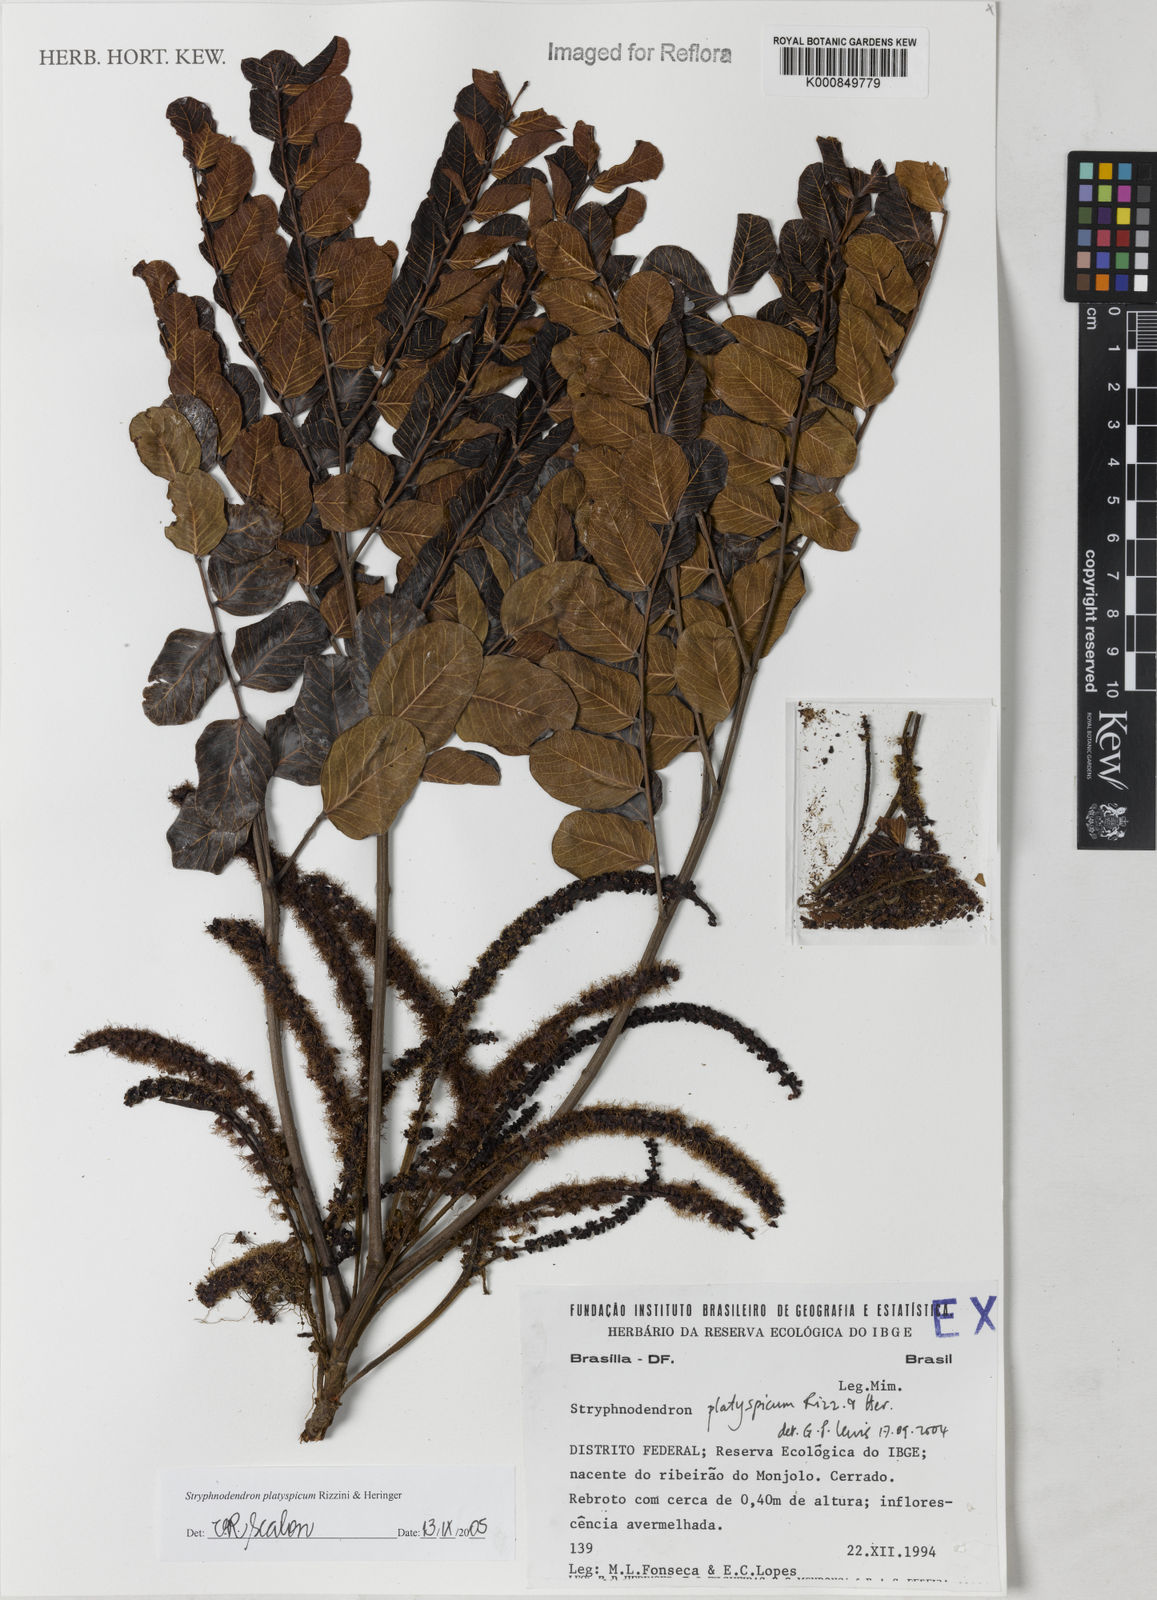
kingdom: Plantae
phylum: Tracheophyta
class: Magnoliopsida
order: Fabales
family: Fabaceae
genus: Stryphnodendron
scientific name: Stryphnodendron
